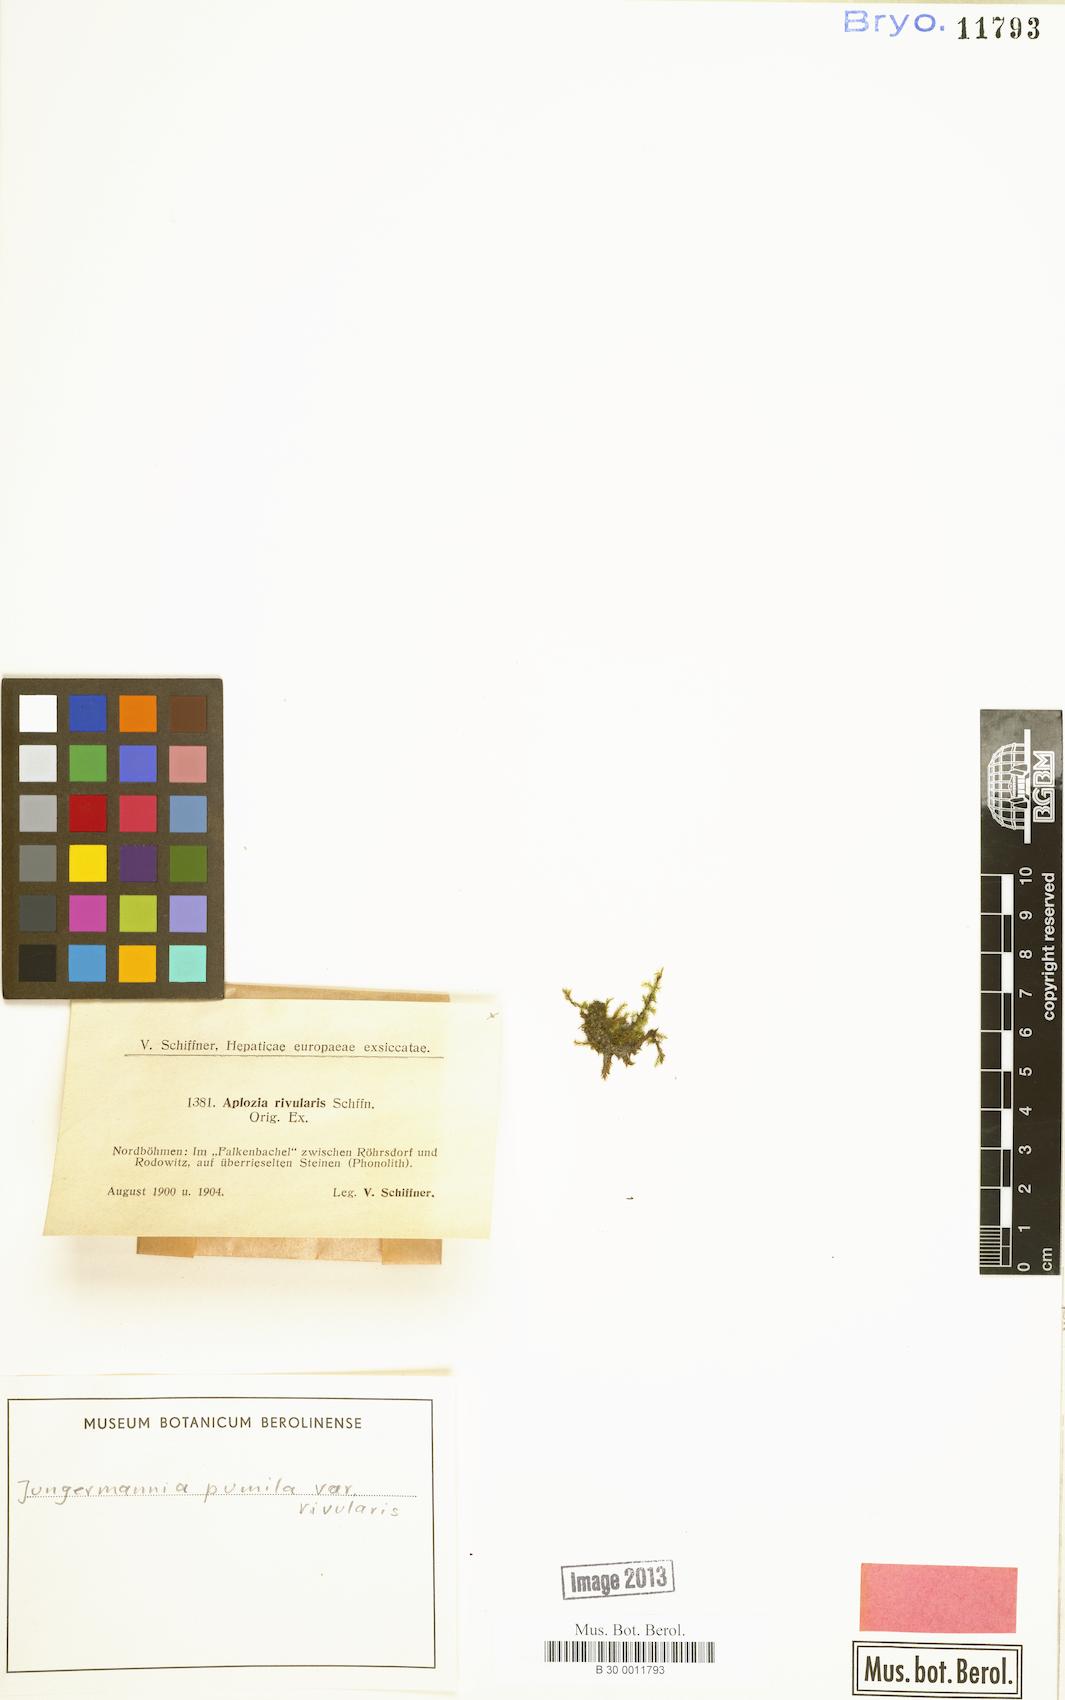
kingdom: Plantae
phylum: Marchantiophyta
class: Jungermanniopsida
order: Jungermanniales
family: Jungermanniaceae
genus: Jungermannia
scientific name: Jungermannia pumila
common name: Dwarf flapwort
